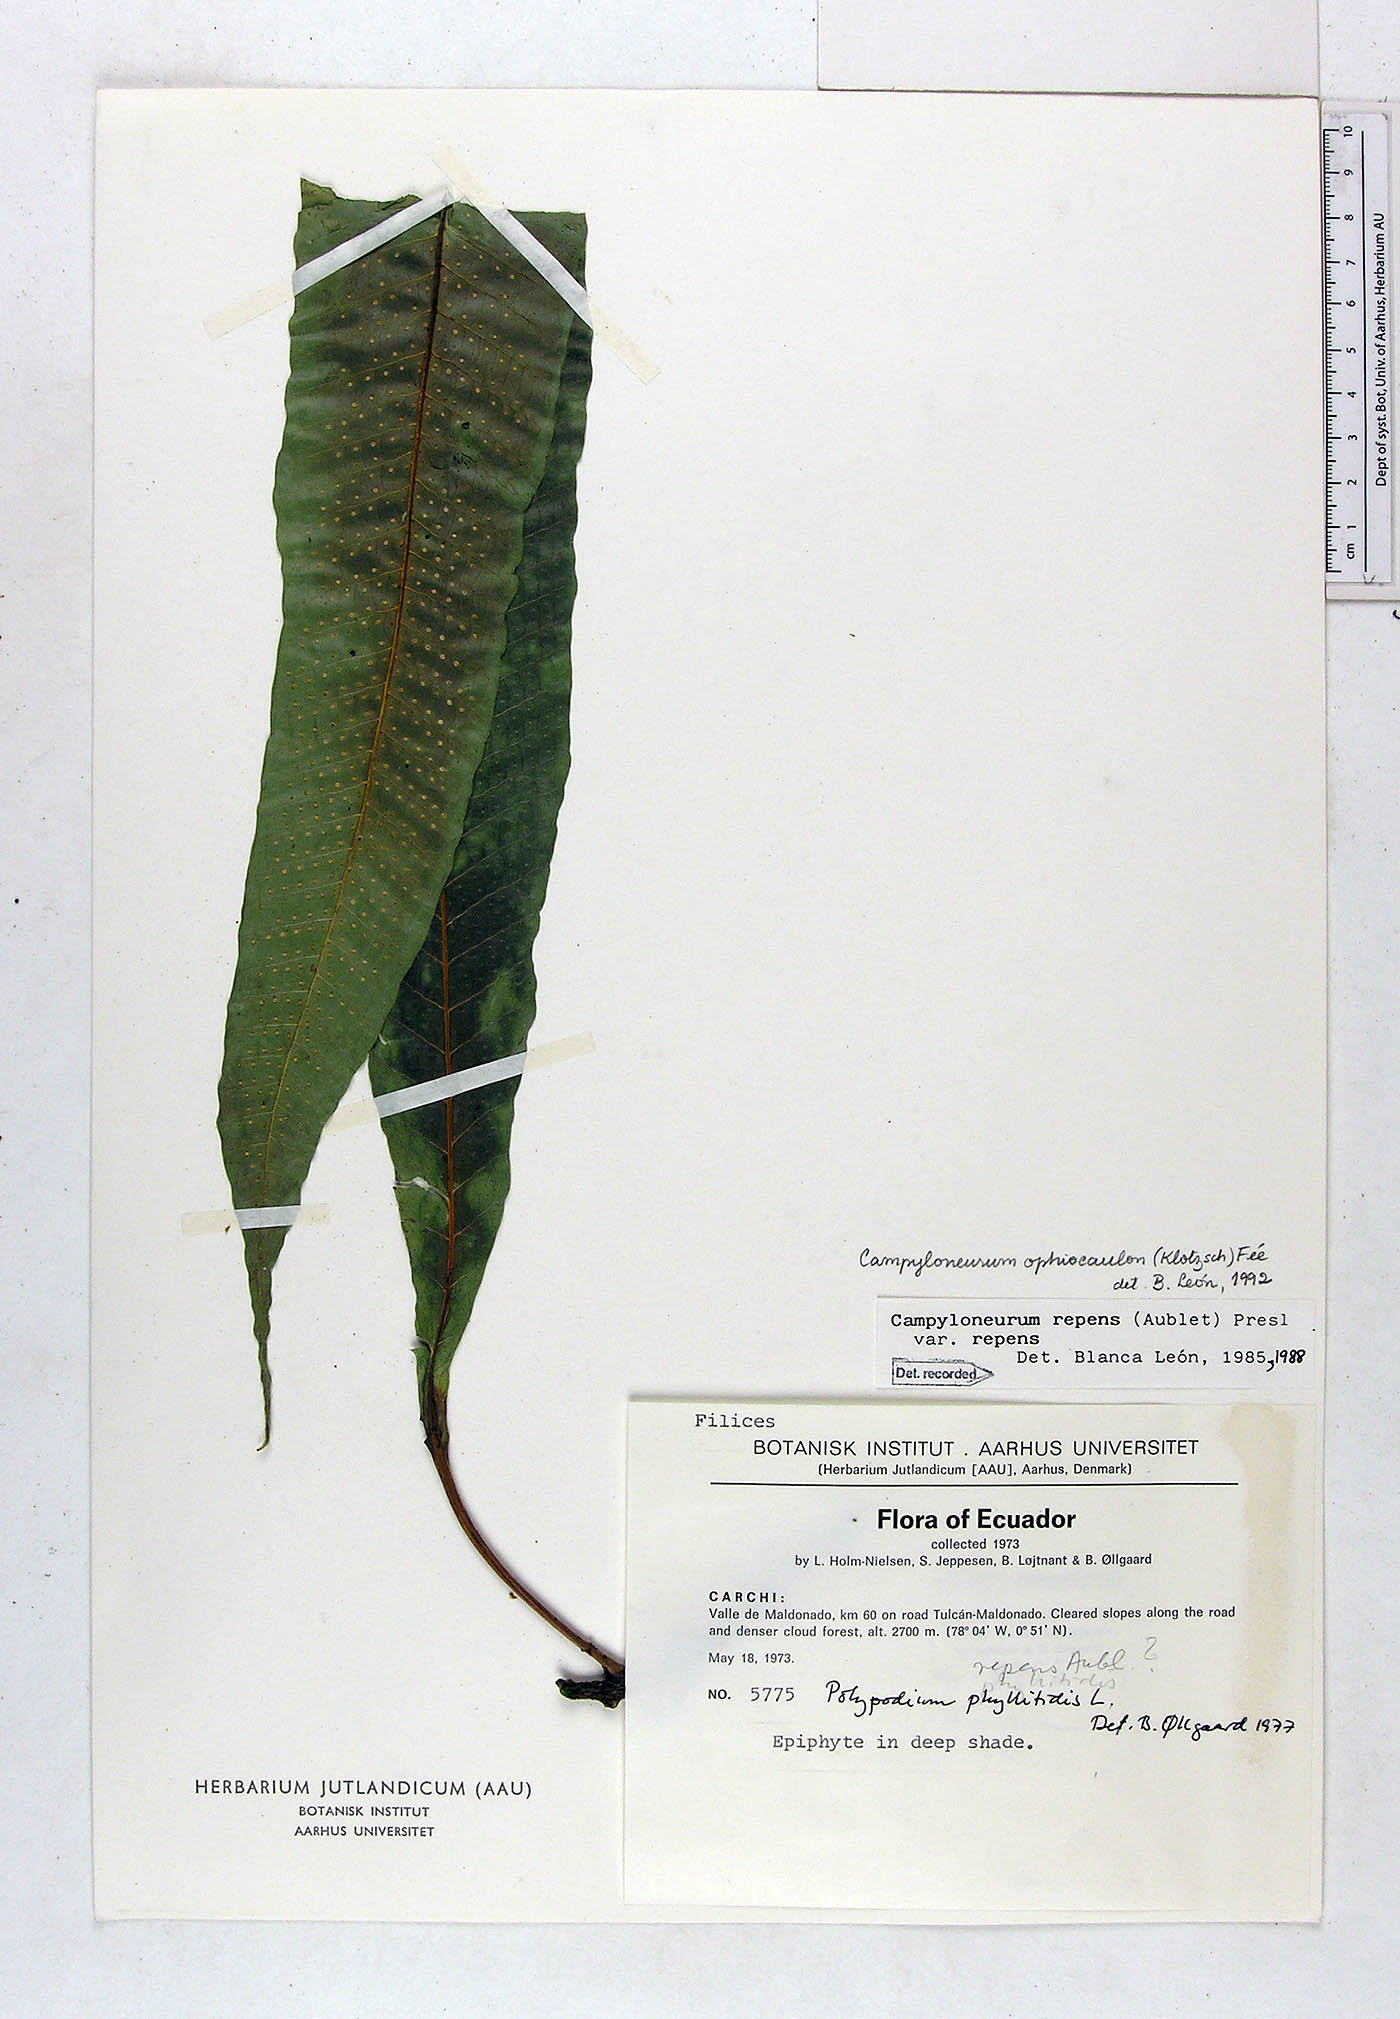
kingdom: Plantae
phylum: Tracheophyta
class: Polypodiopsida
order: Polypodiales
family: Polypodiaceae
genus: Campyloneurum
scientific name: Campyloneurum ophiocaulon
